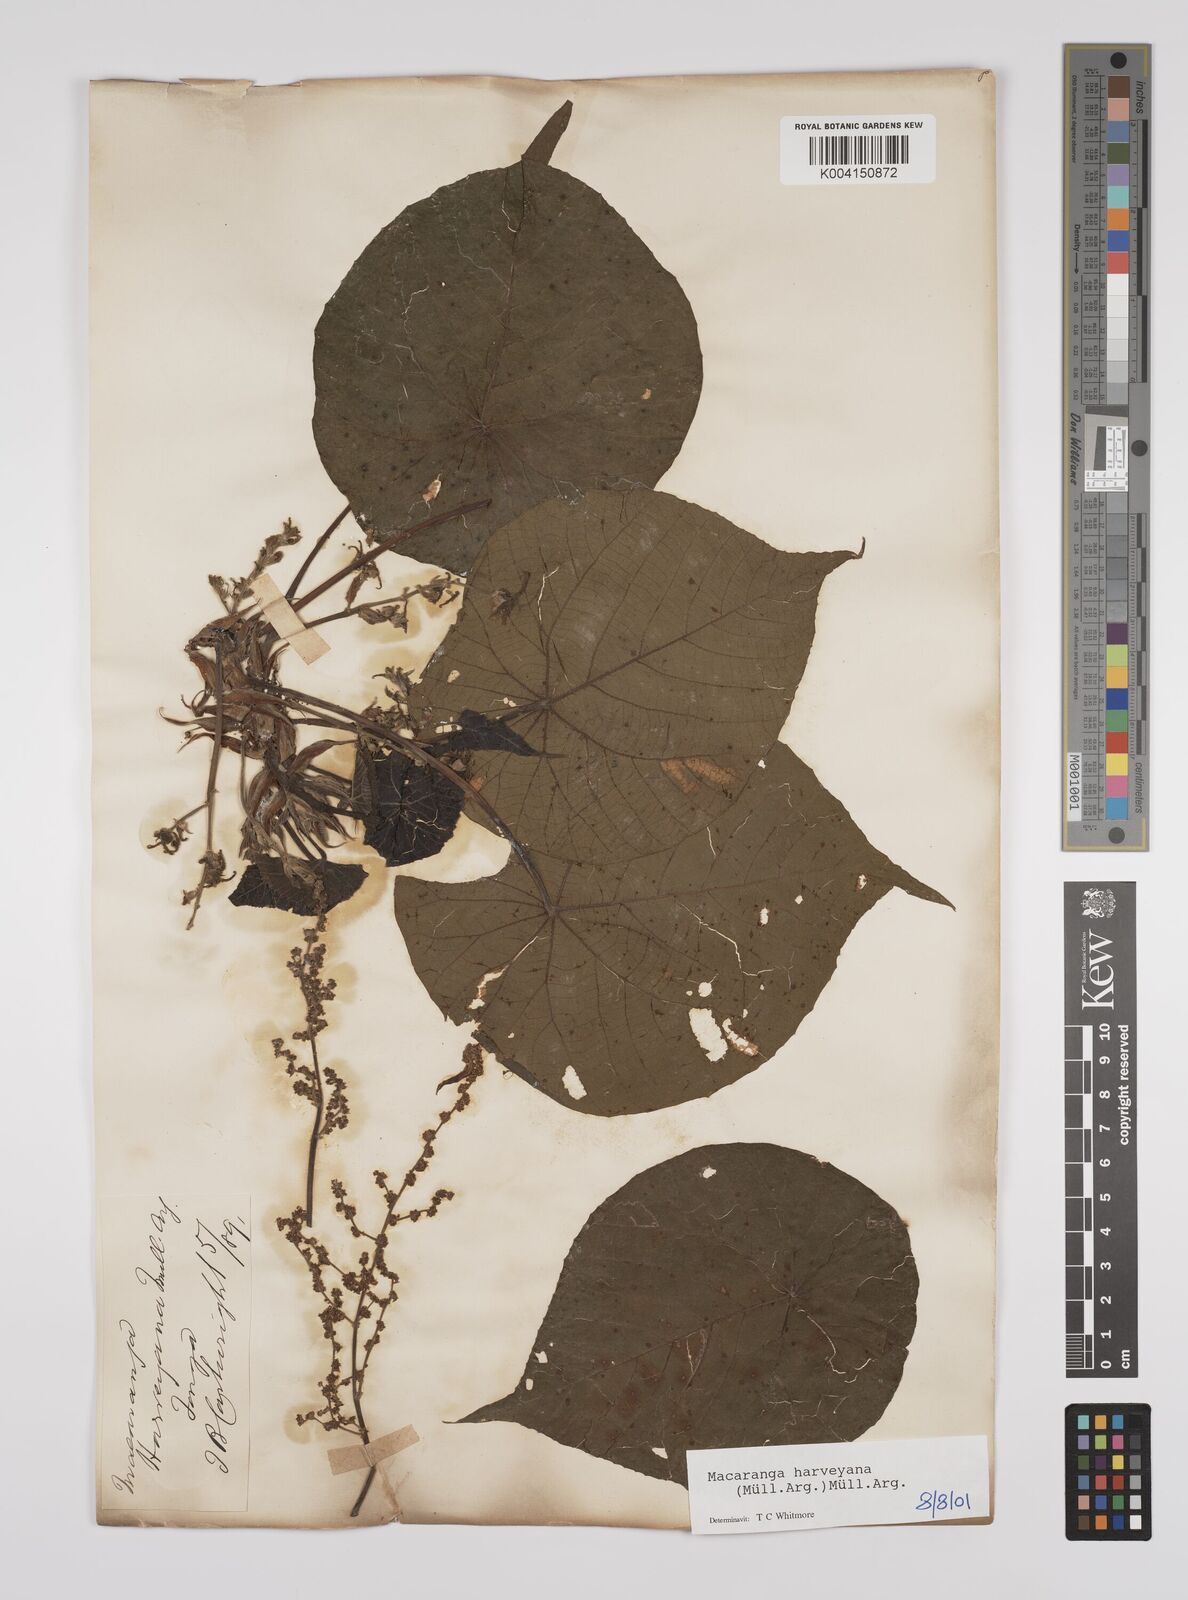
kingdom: Plantae
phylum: Tracheophyta
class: Magnoliopsida
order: Malpighiales
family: Euphorbiaceae
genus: Macaranga
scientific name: Macaranga harveyana
